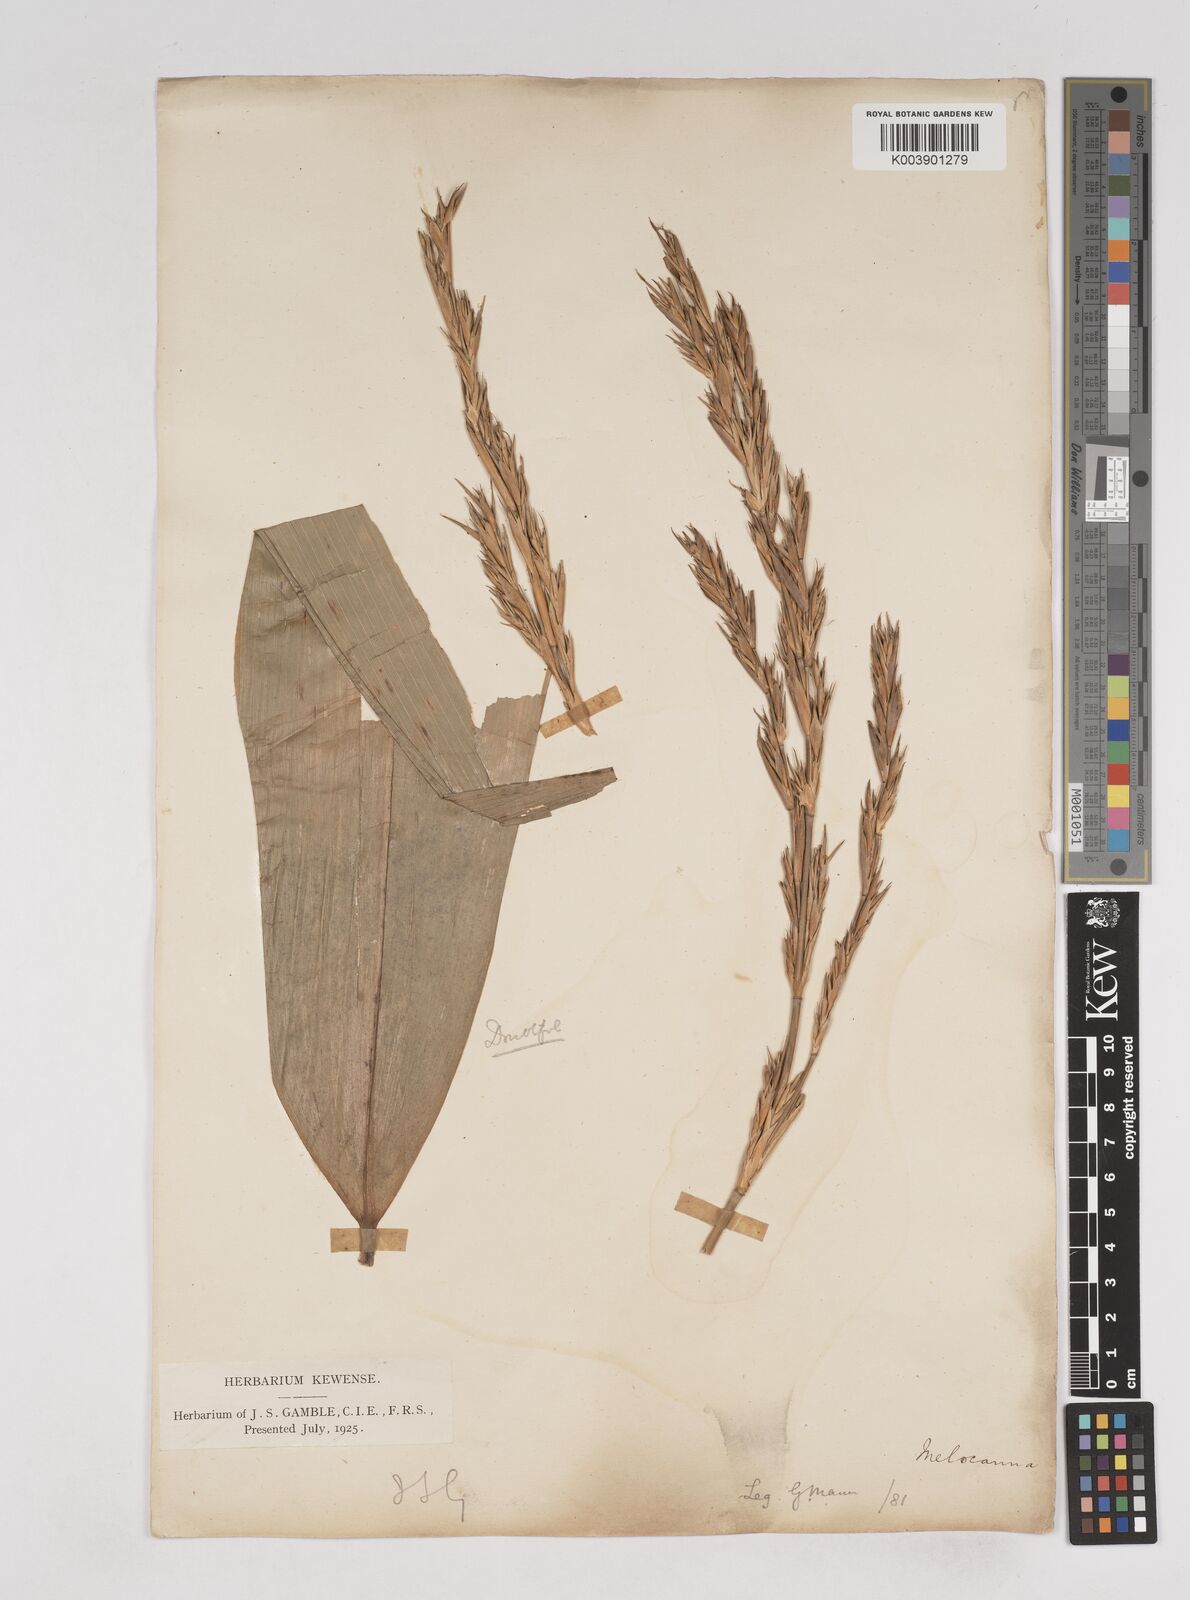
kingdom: Plantae
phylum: Tracheophyta
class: Liliopsida
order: Poales
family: Poaceae
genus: Melocanna
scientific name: Melocanna baccifera
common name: Berry bamboo
